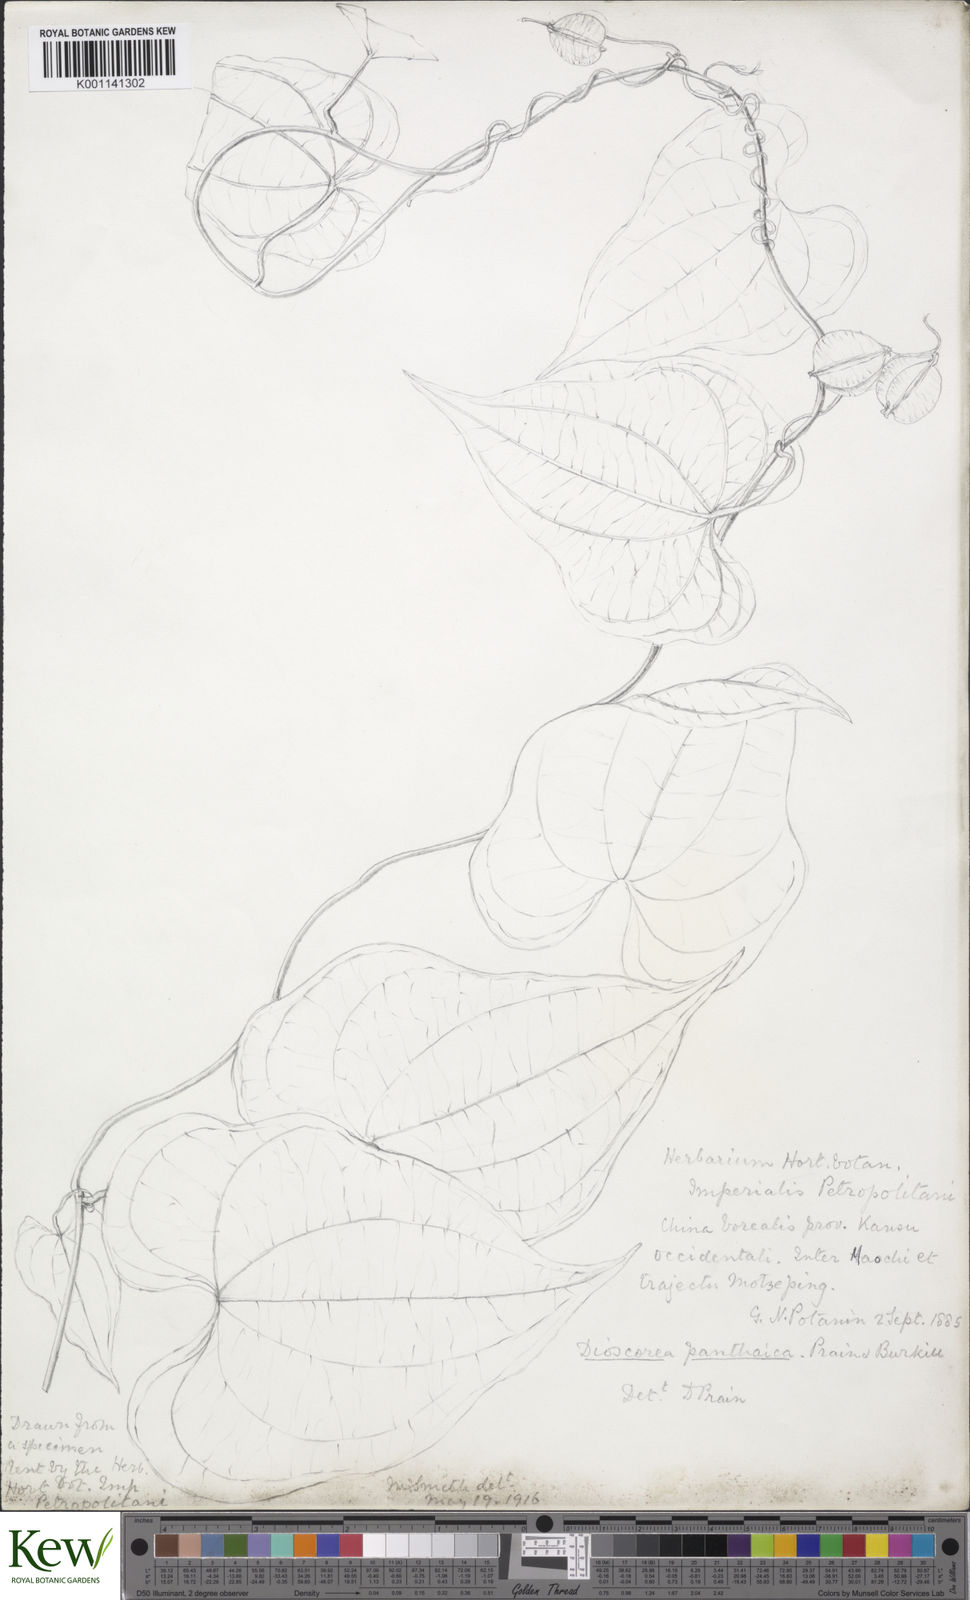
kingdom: Plantae
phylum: Tracheophyta
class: Liliopsida
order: Dioscoreales
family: Dioscoreaceae
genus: Dioscorea
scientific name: Dioscorea zingiberensis
